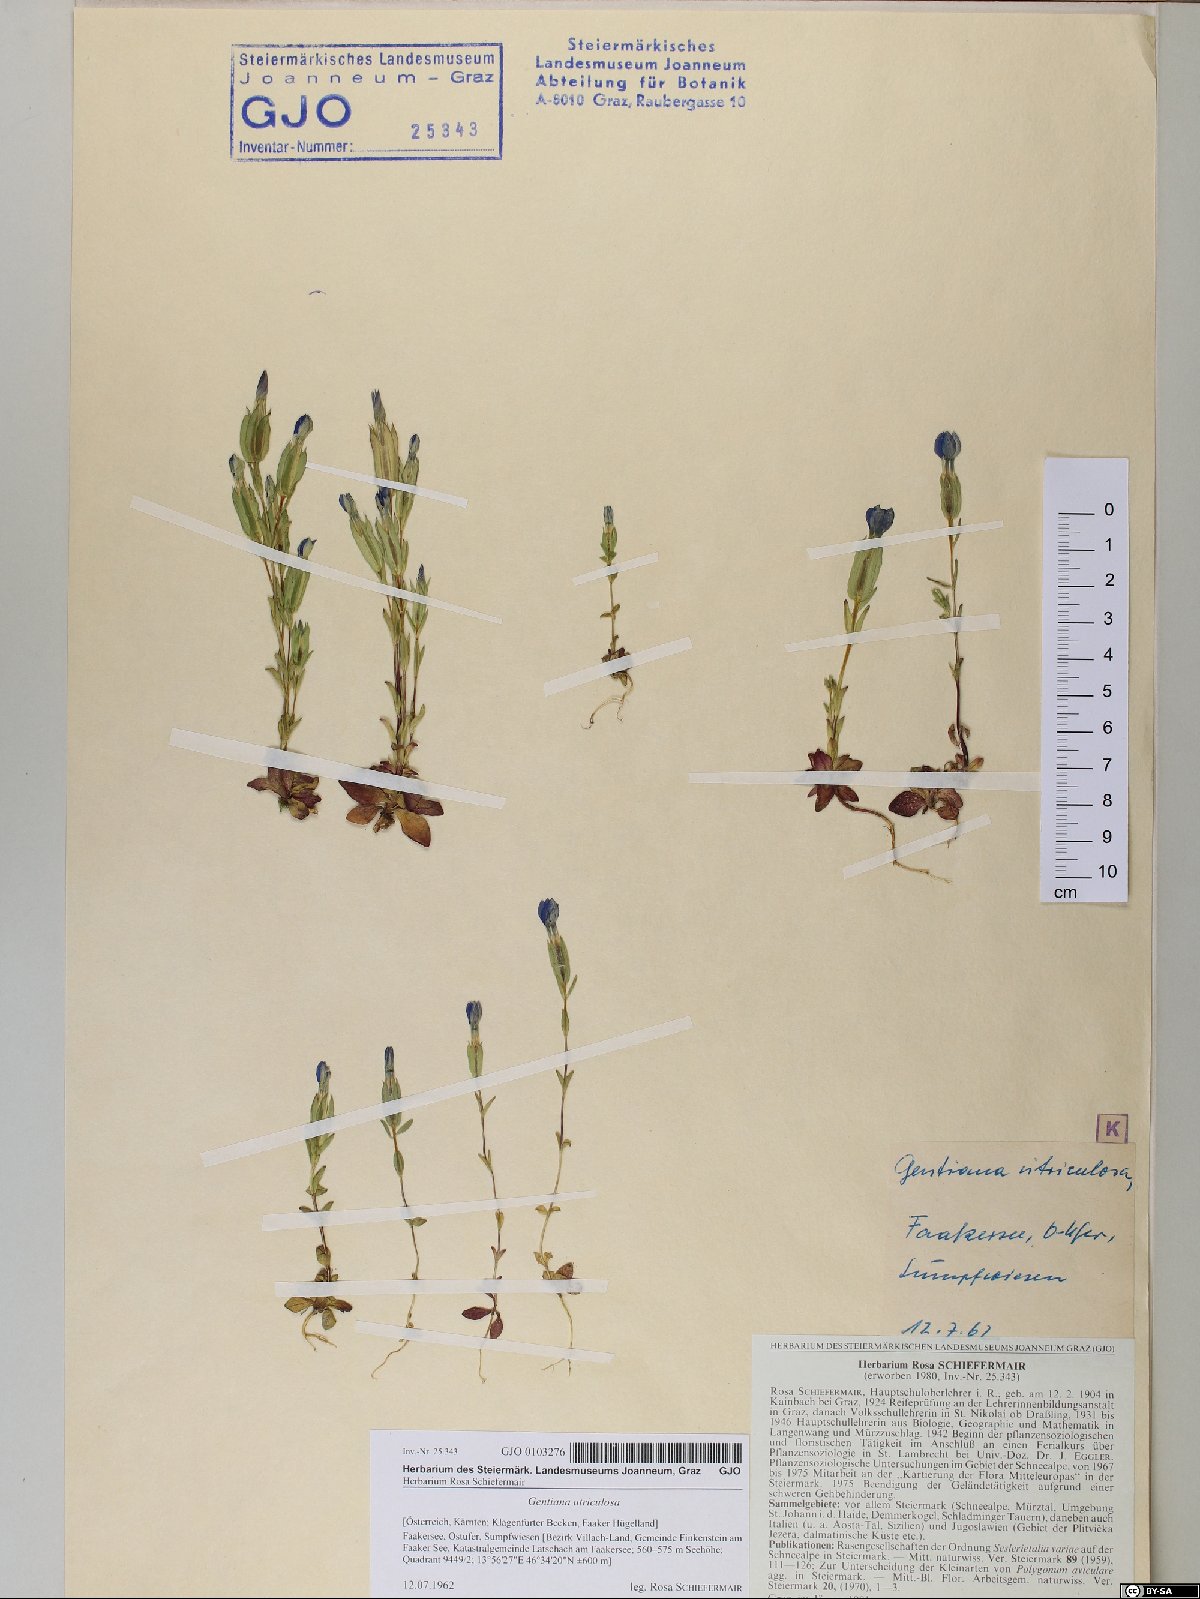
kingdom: Plantae
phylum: Tracheophyta
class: Magnoliopsida
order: Gentianales
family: Gentianaceae
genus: Gentiana
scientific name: Gentiana utriculosa
